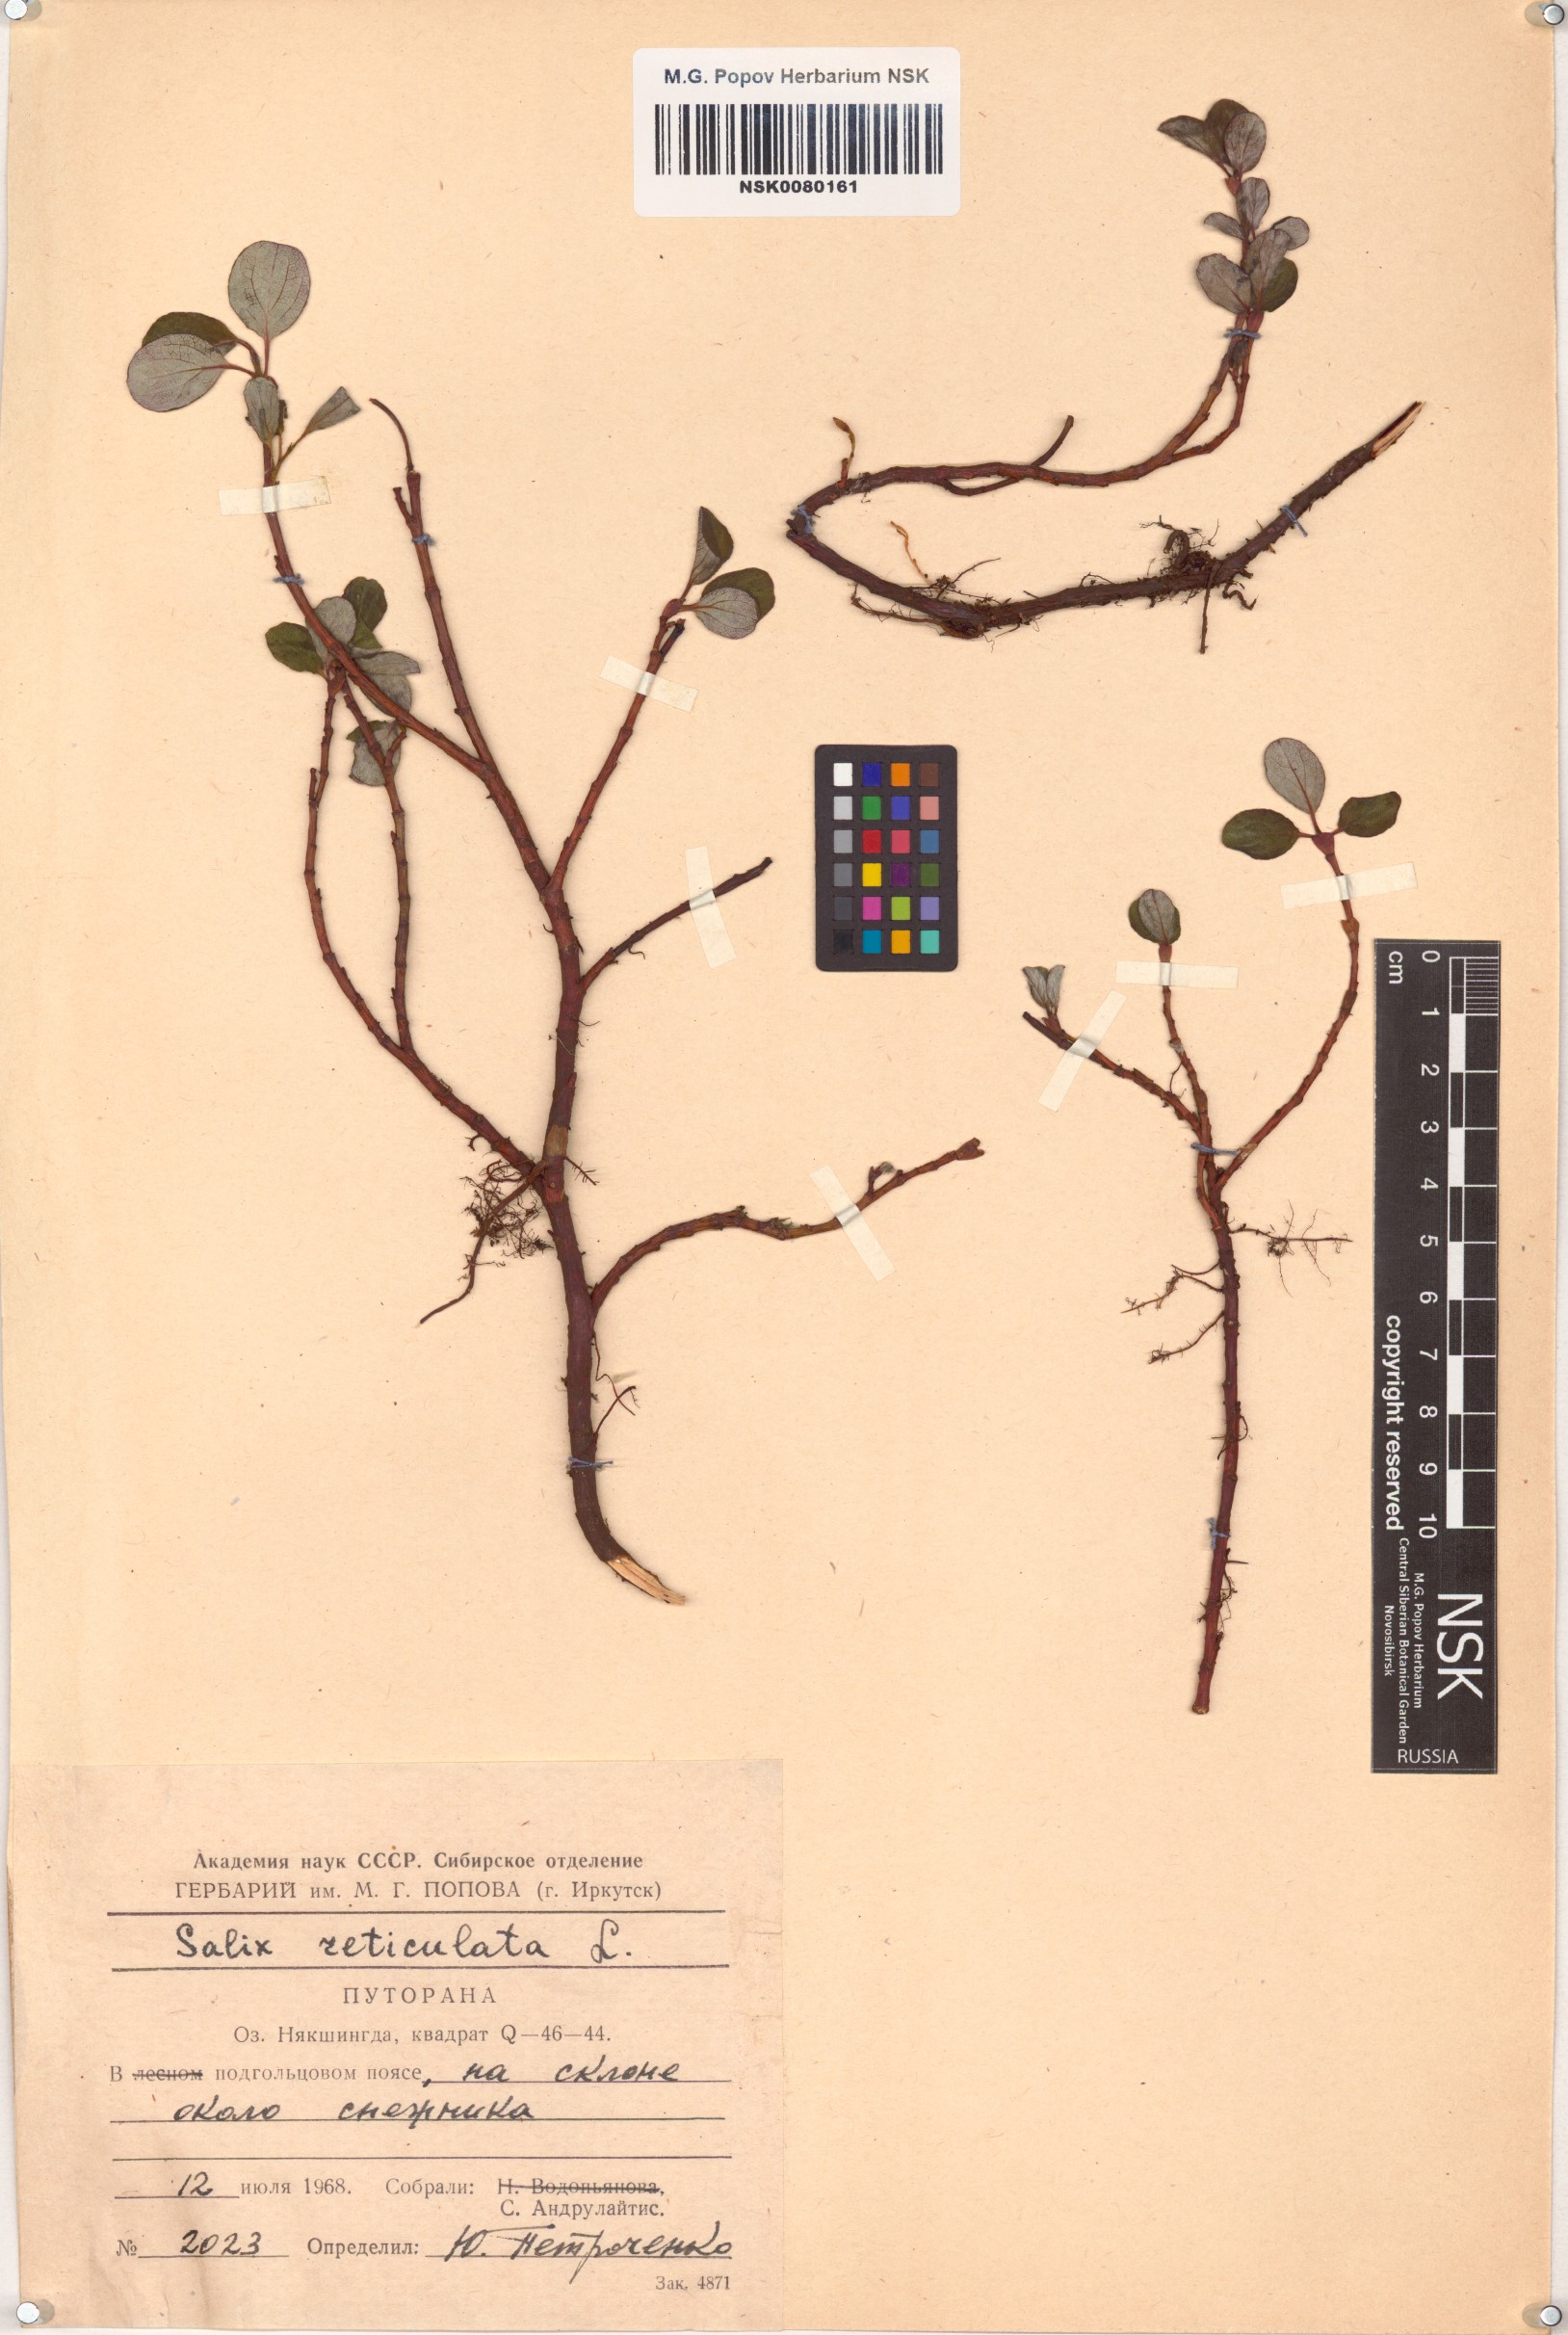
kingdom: Plantae
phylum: Tracheophyta
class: Magnoliopsida
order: Malpighiales
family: Salicaceae
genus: Salix
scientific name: Salix reticulata
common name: Net-leaved willow
